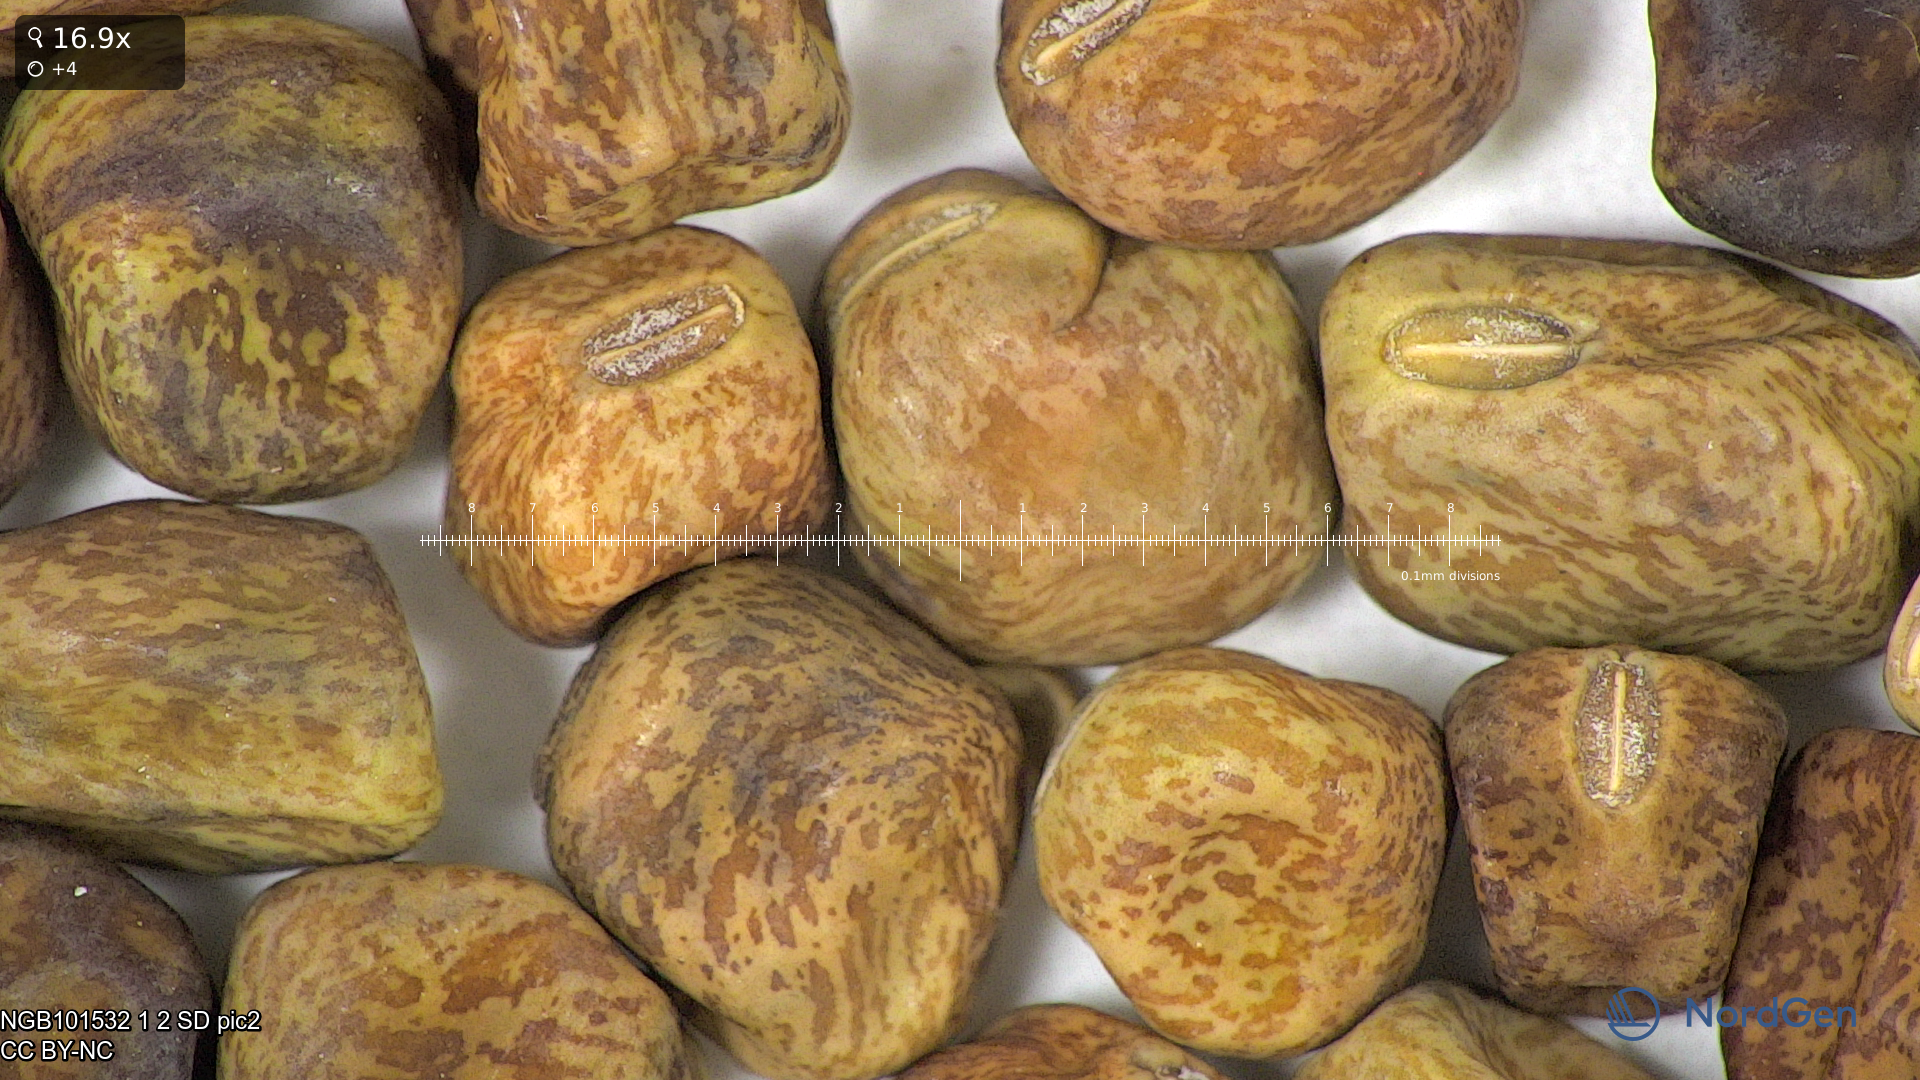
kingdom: Plantae
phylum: Tracheophyta
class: Magnoliopsida
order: Fabales
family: Fabaceae
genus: Lathyrus
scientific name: Lathyrus oleraceus
